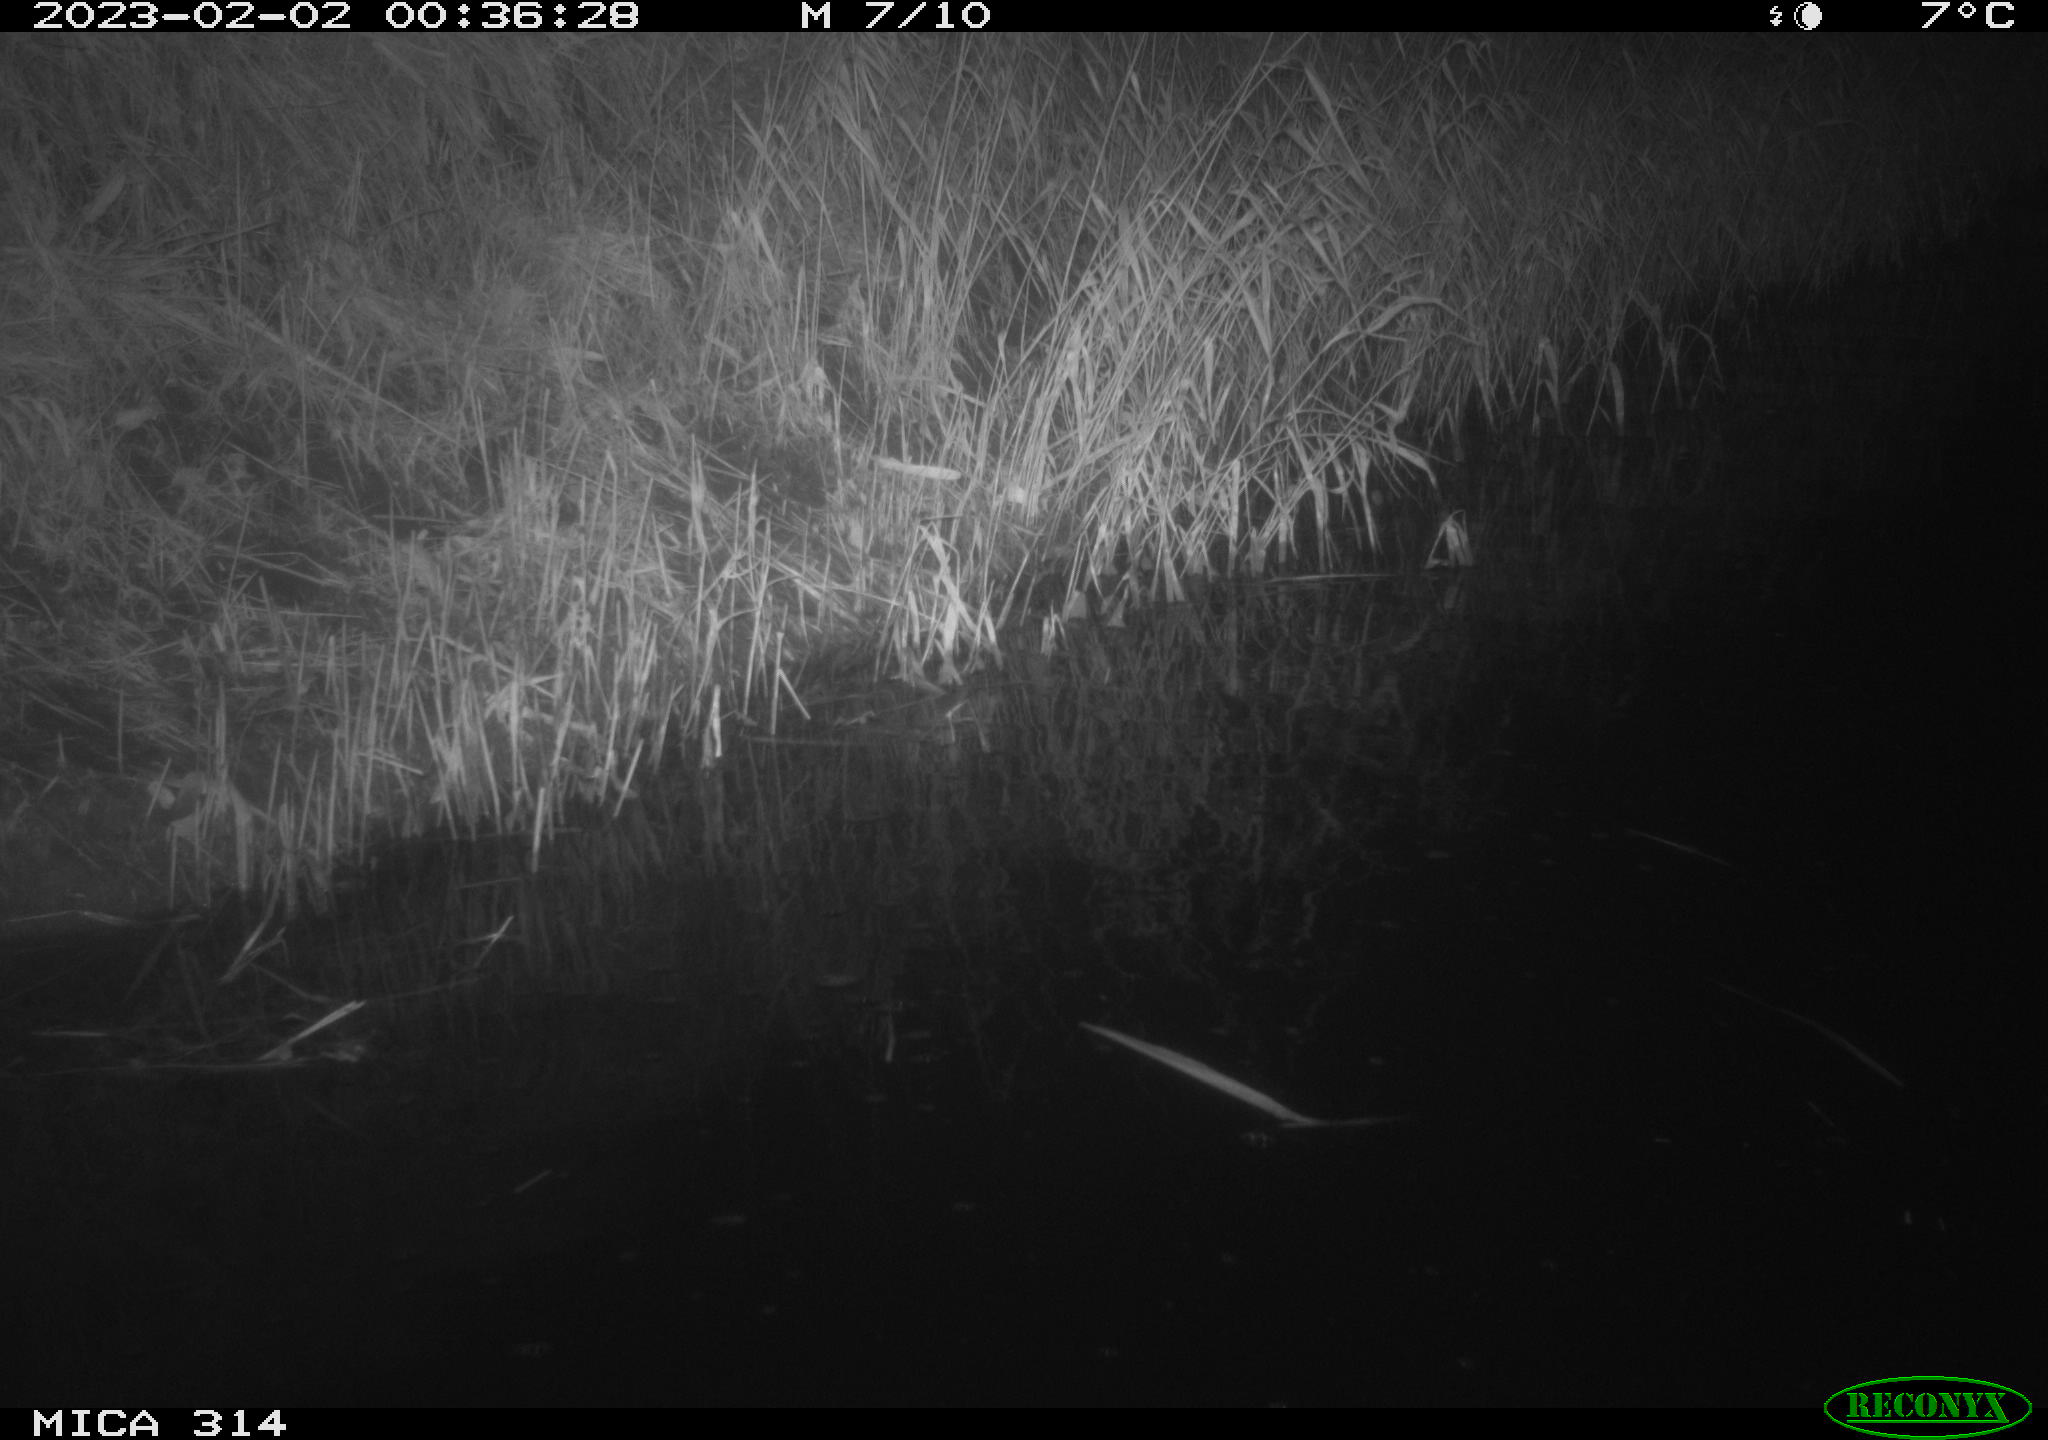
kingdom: Animalia
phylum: Chordata
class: Mammalia
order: Rodentia
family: Muridae
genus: Rattus
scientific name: Rattus norvegicus
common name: Brown rat
